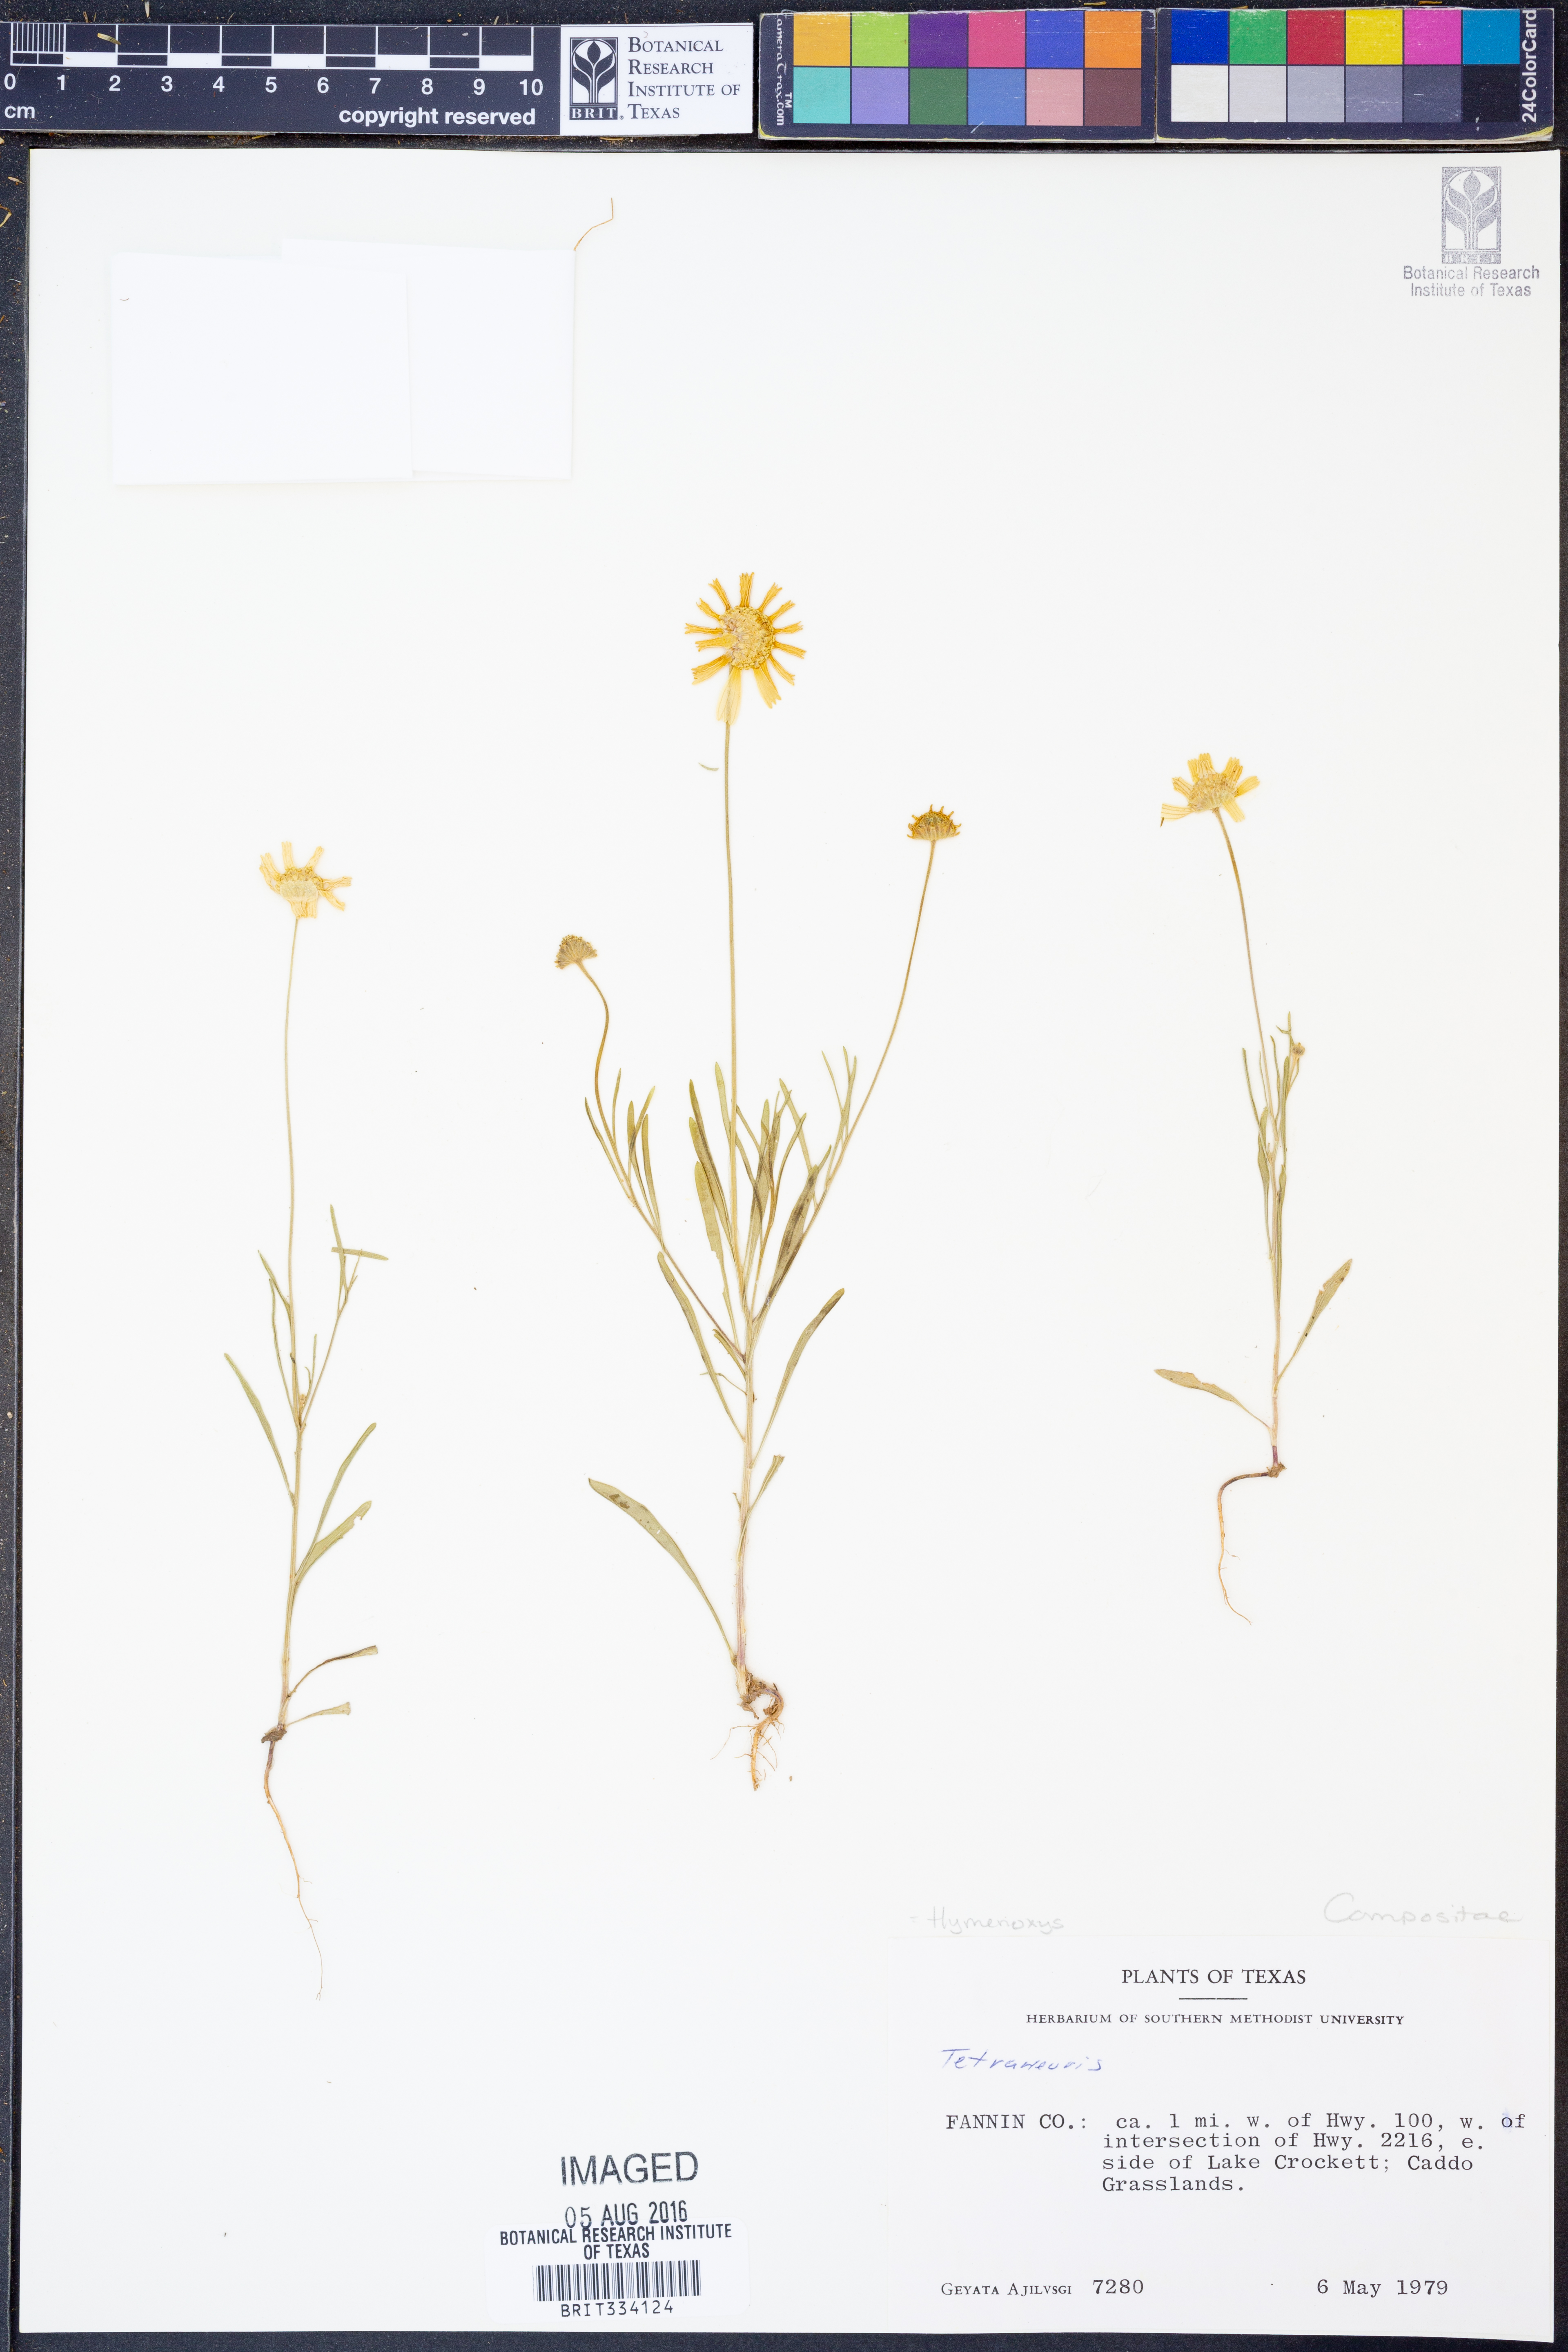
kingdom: Plantae
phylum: Tracheophyta
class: Magnoliopsida
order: Asterales
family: Asteraceae
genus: Hymenoxys
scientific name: Hymenoxys
